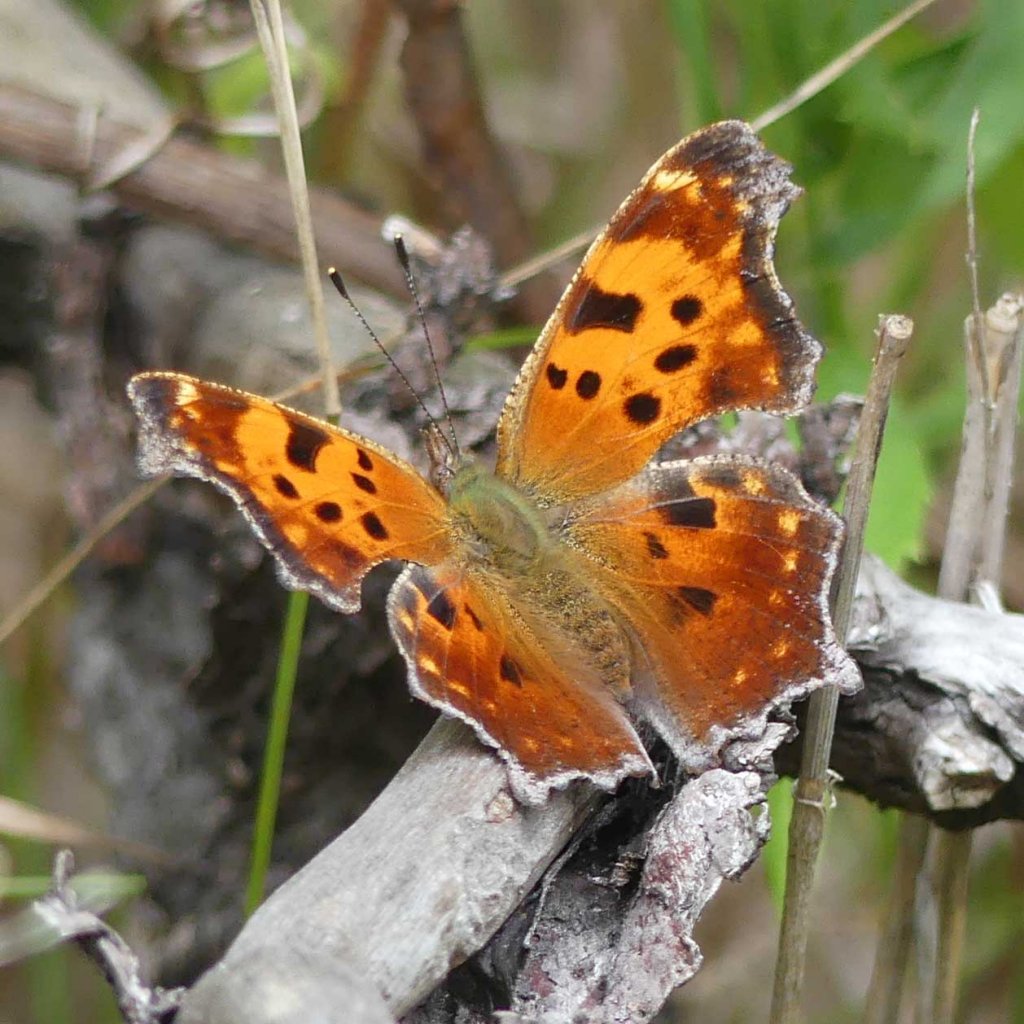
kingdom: Animalia
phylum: Arthropoda
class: Insecta
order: Lepidoptera
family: Nymphalidae
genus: Polygonia
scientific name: Polygonia comma
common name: Eastern Comma
